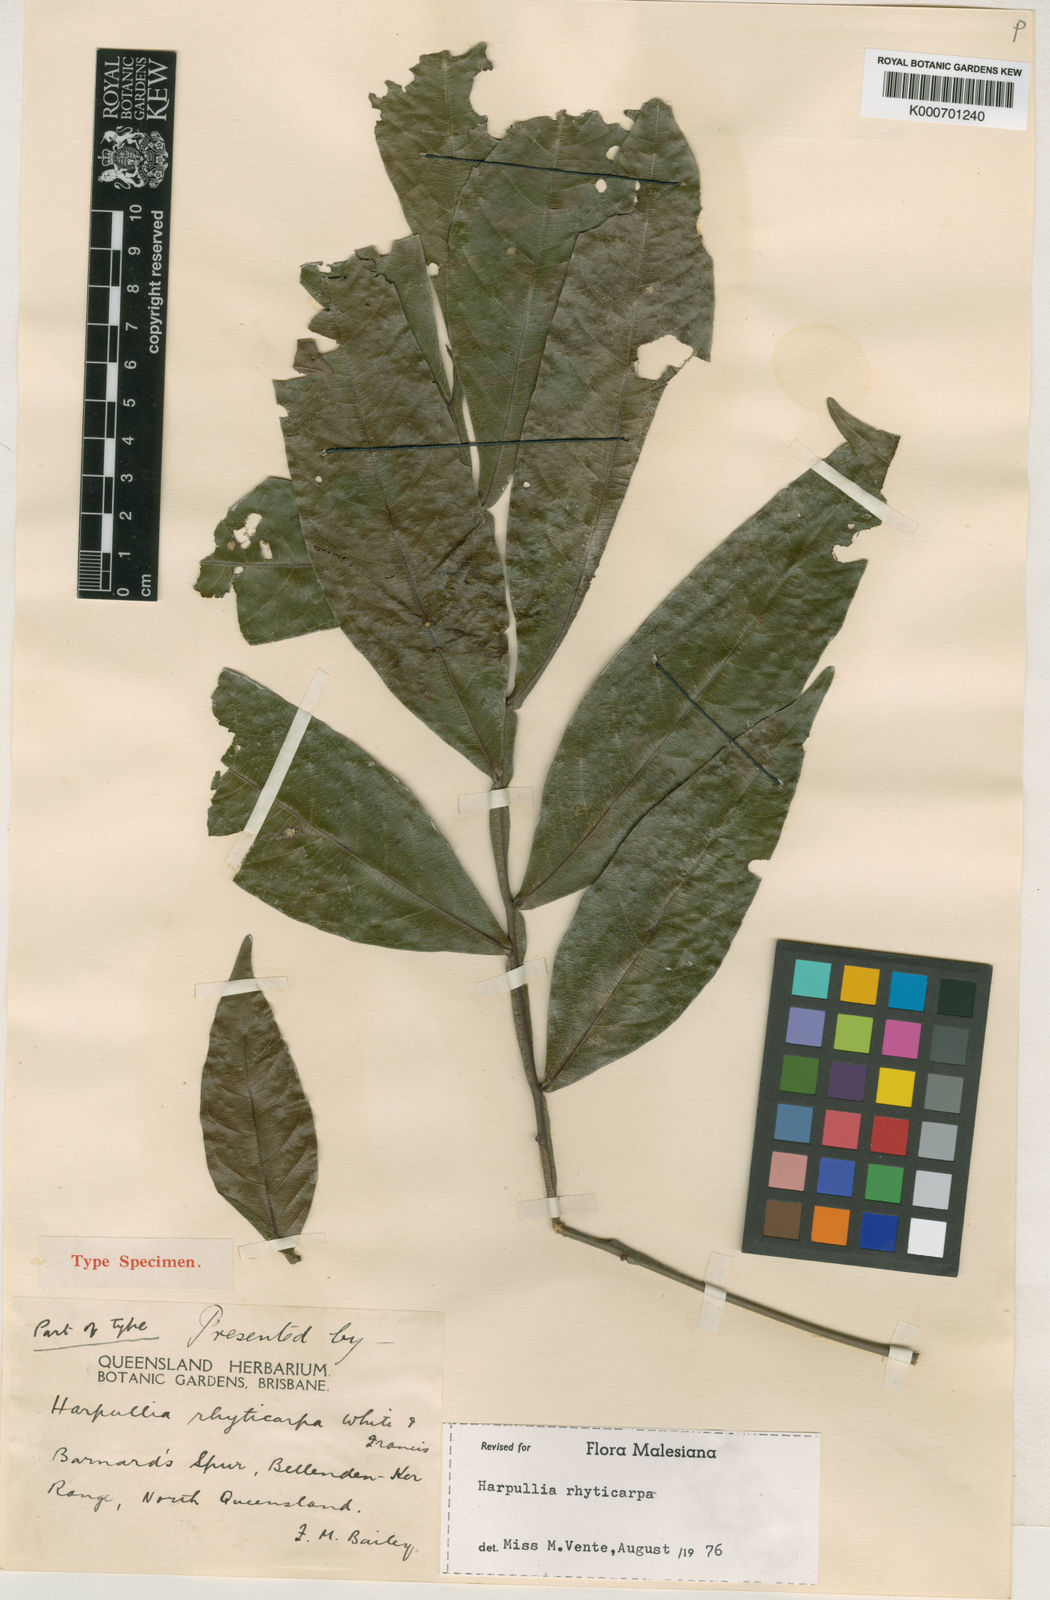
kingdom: Plantae
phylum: Tracheophyta
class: Magnoliopsida
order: Sapindales
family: Sapindaceae
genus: Harpullia
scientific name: Harpullia rhyticarpa
